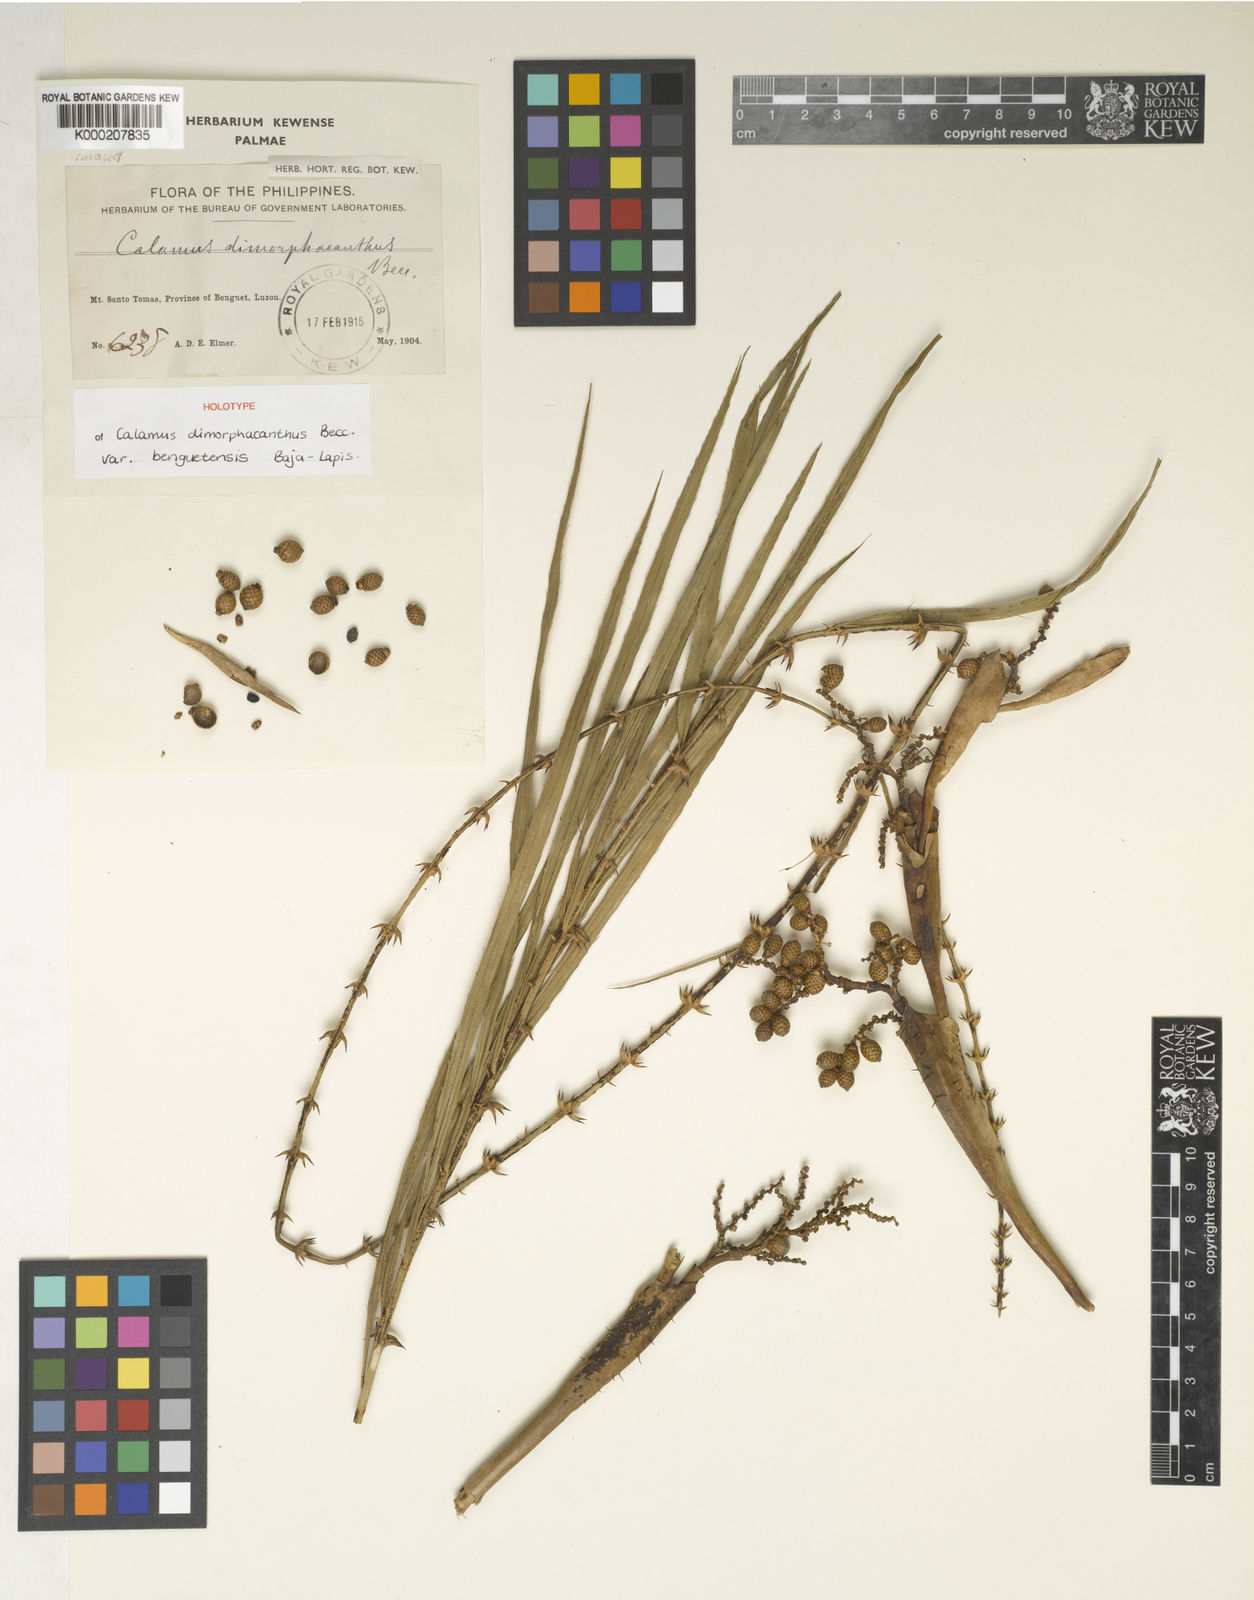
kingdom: Plantae
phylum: Tracheophyta
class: Liliopsida
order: Arecales
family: Arecaceae
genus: Calamus
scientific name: Calamus siphonospathus
